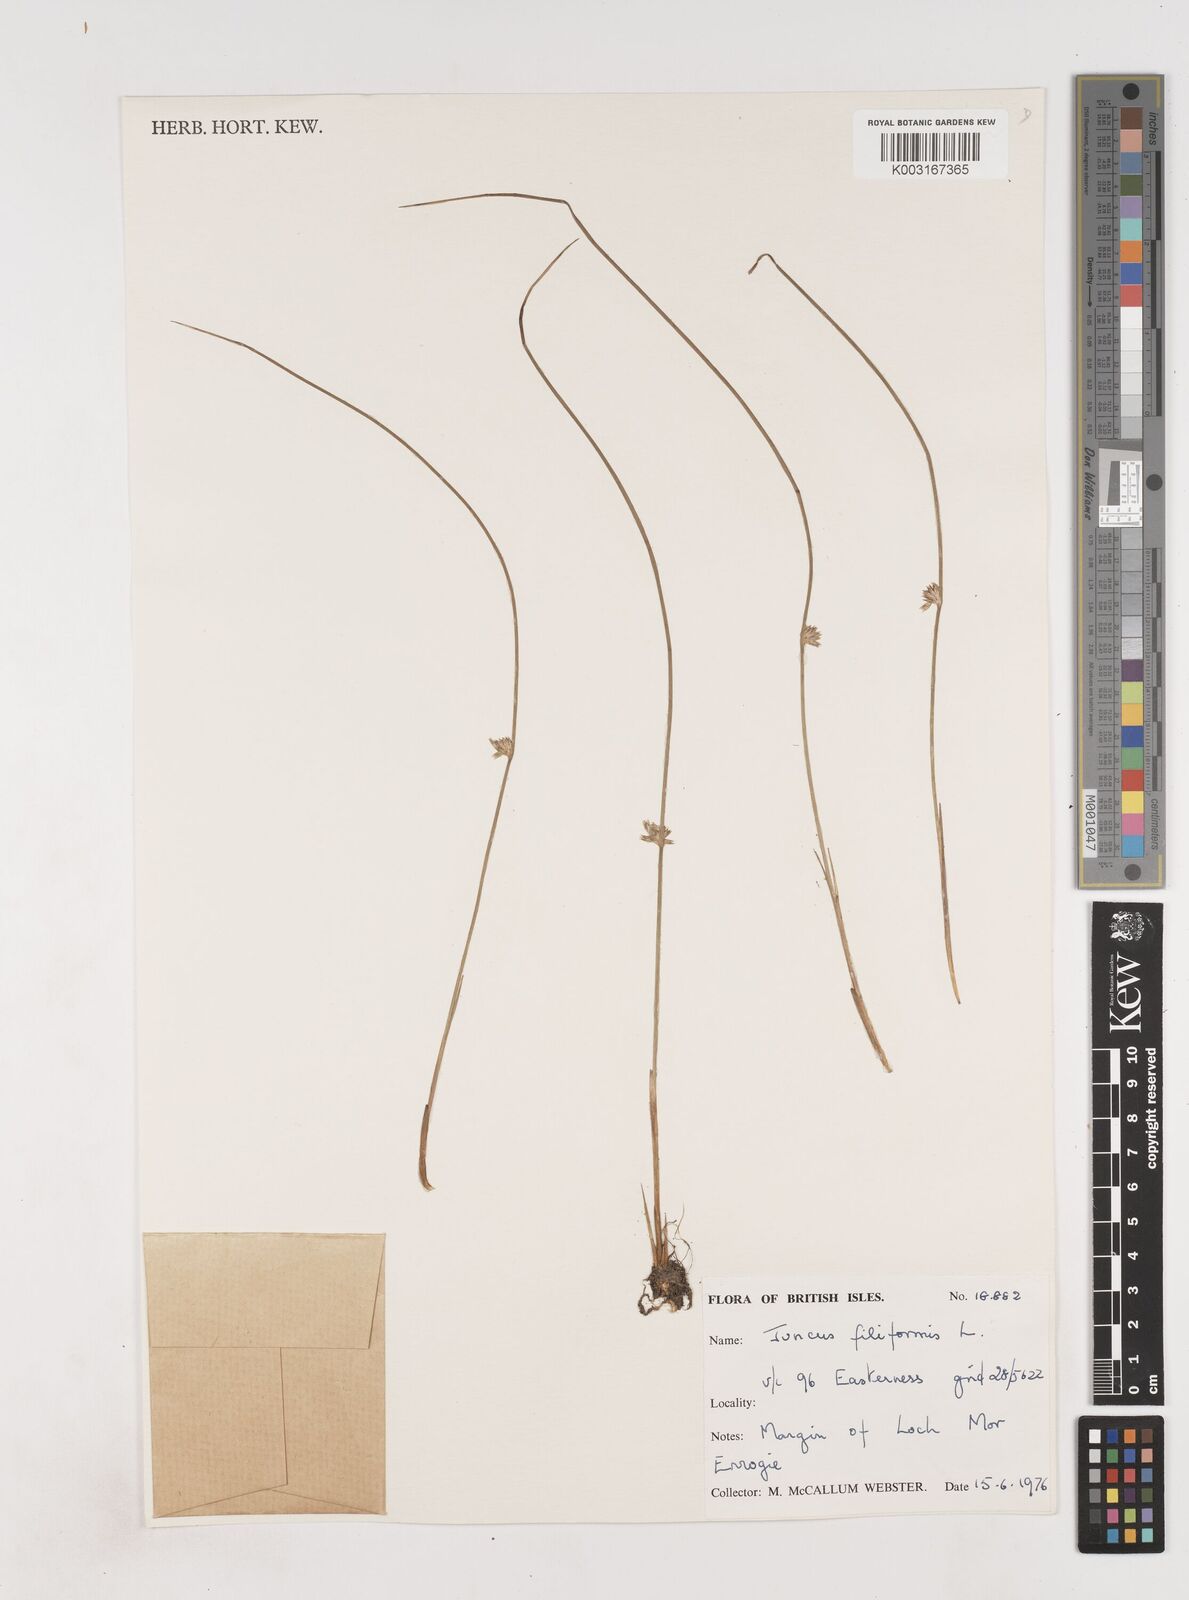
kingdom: Plantae
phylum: Tracheophyta
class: Liliopsida
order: Poales
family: Juncaceae
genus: Juncus
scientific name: Juncus filiformis
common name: Thread rush
